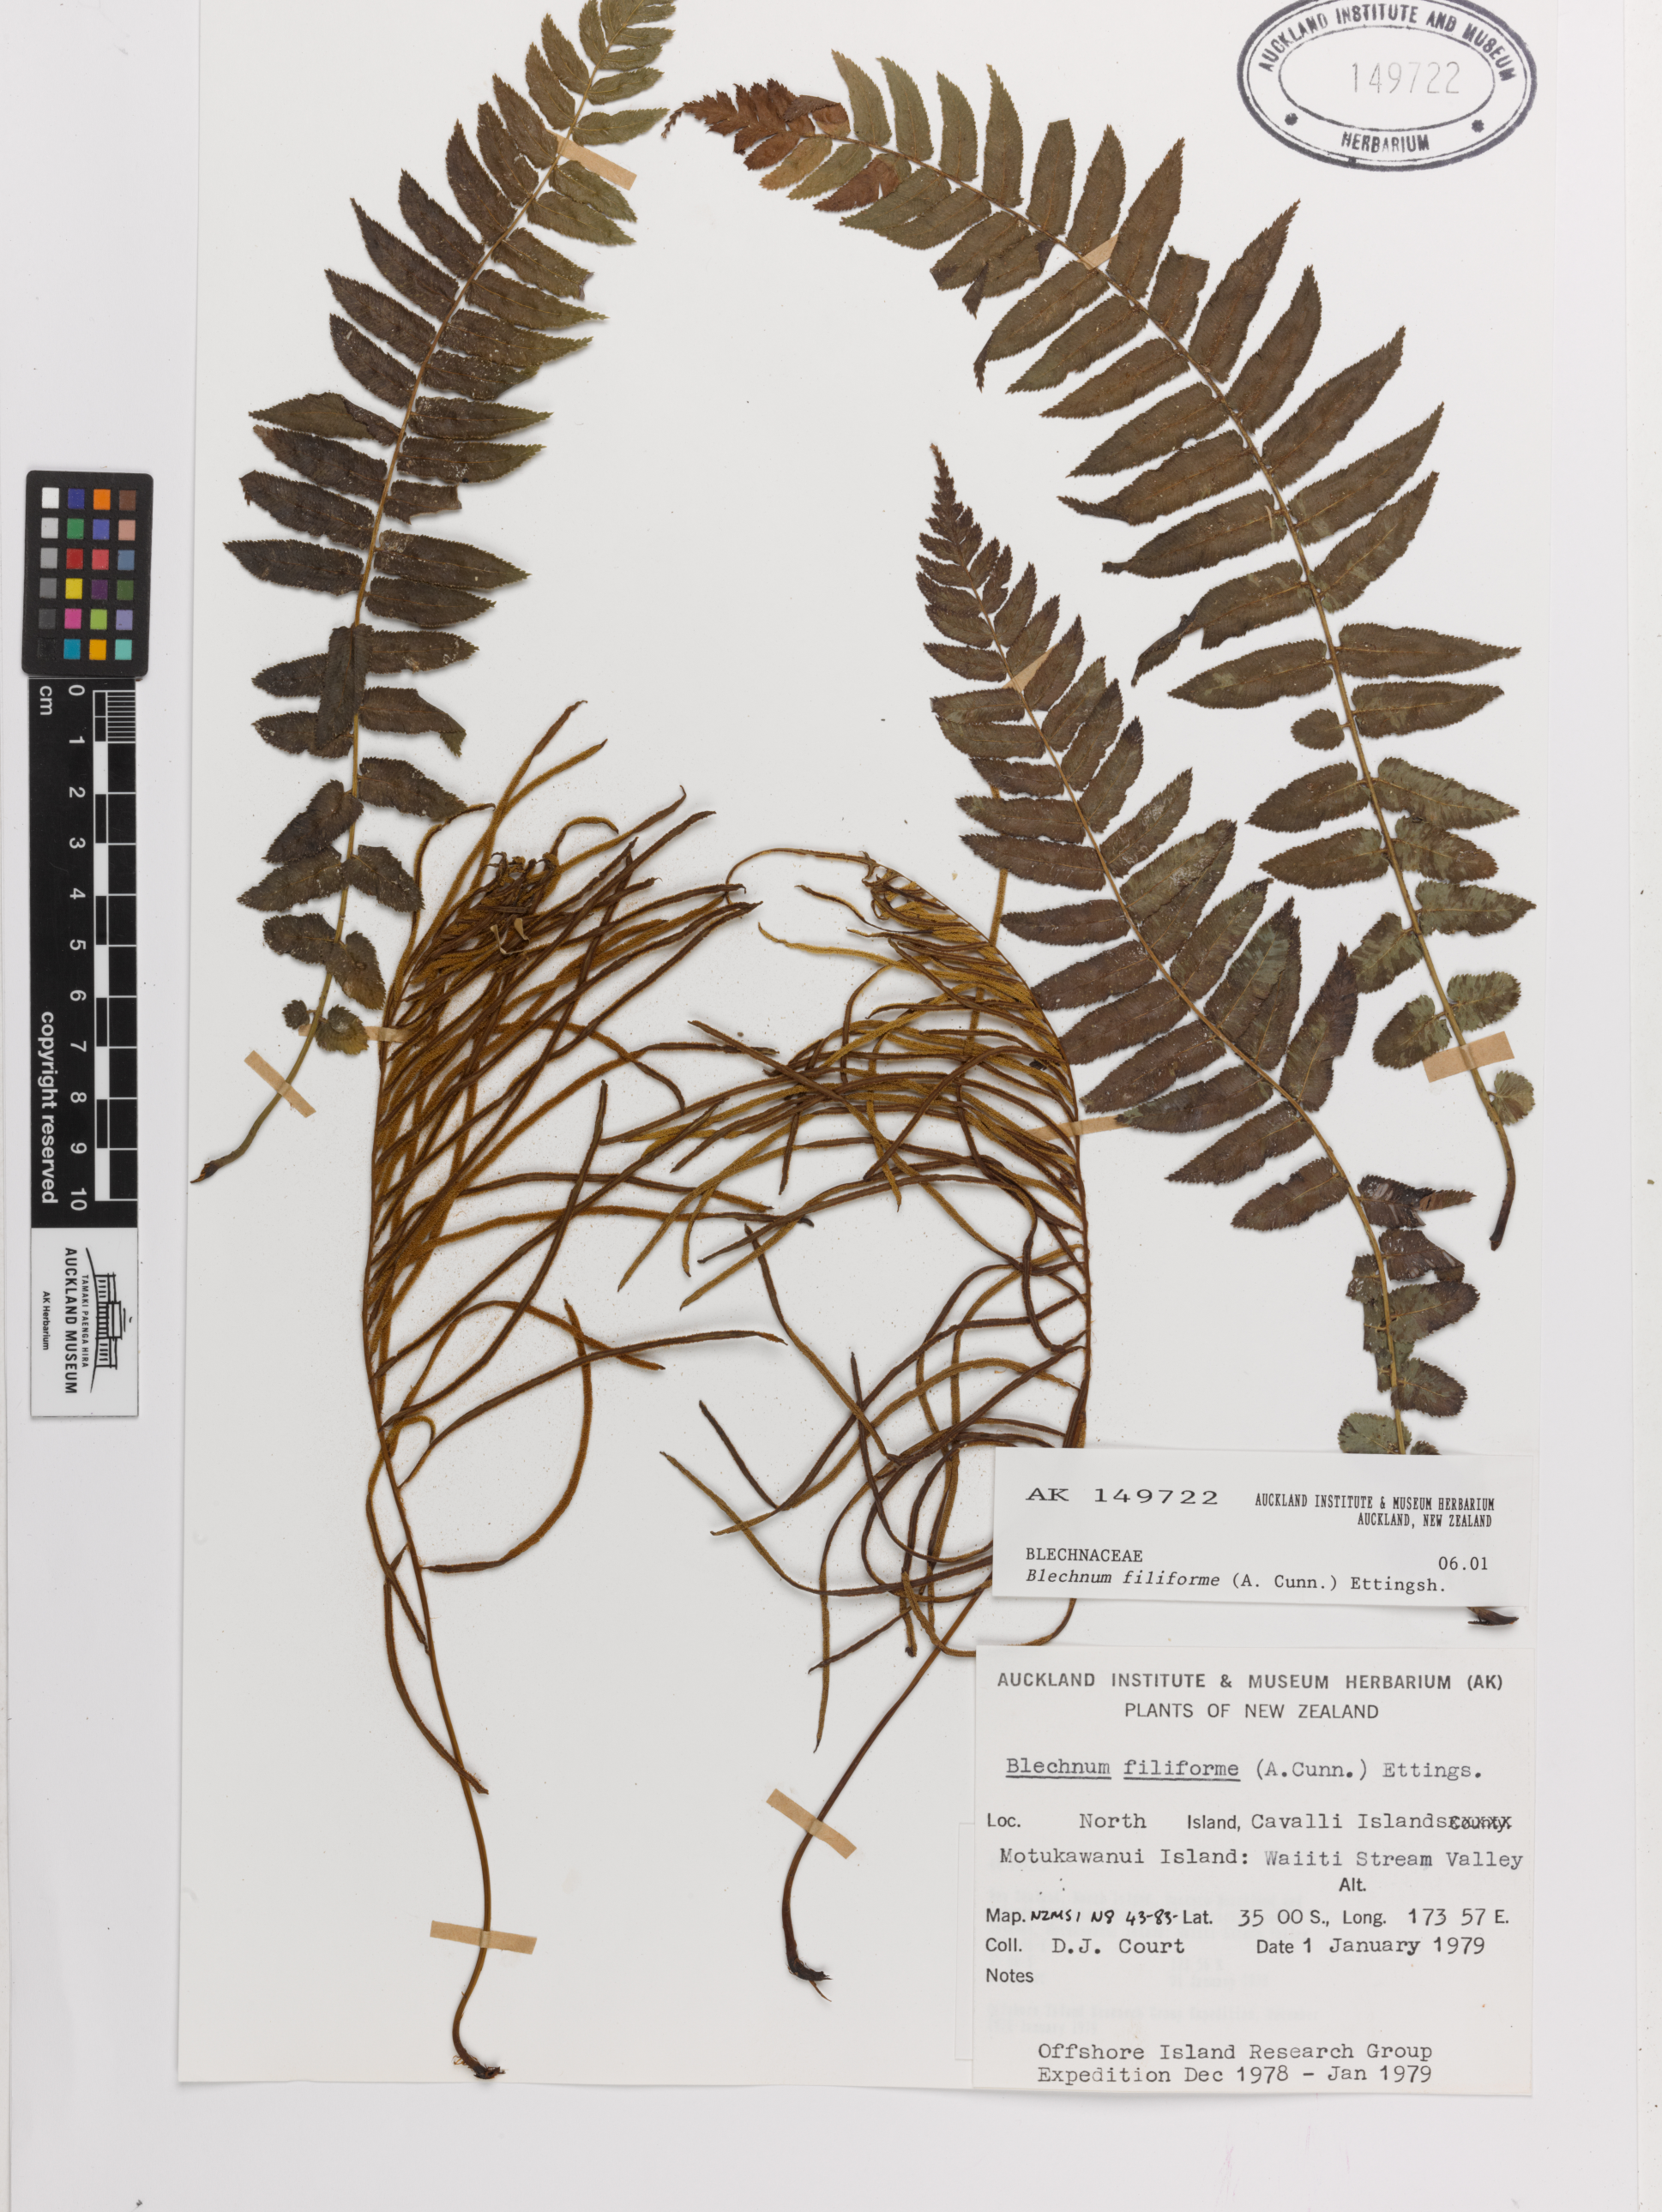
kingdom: Plantae
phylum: Tracheophyta
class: Polypodiopsida
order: Polypodiales
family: Blechnaceae
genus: Icarus
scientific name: Icarus filiformis
